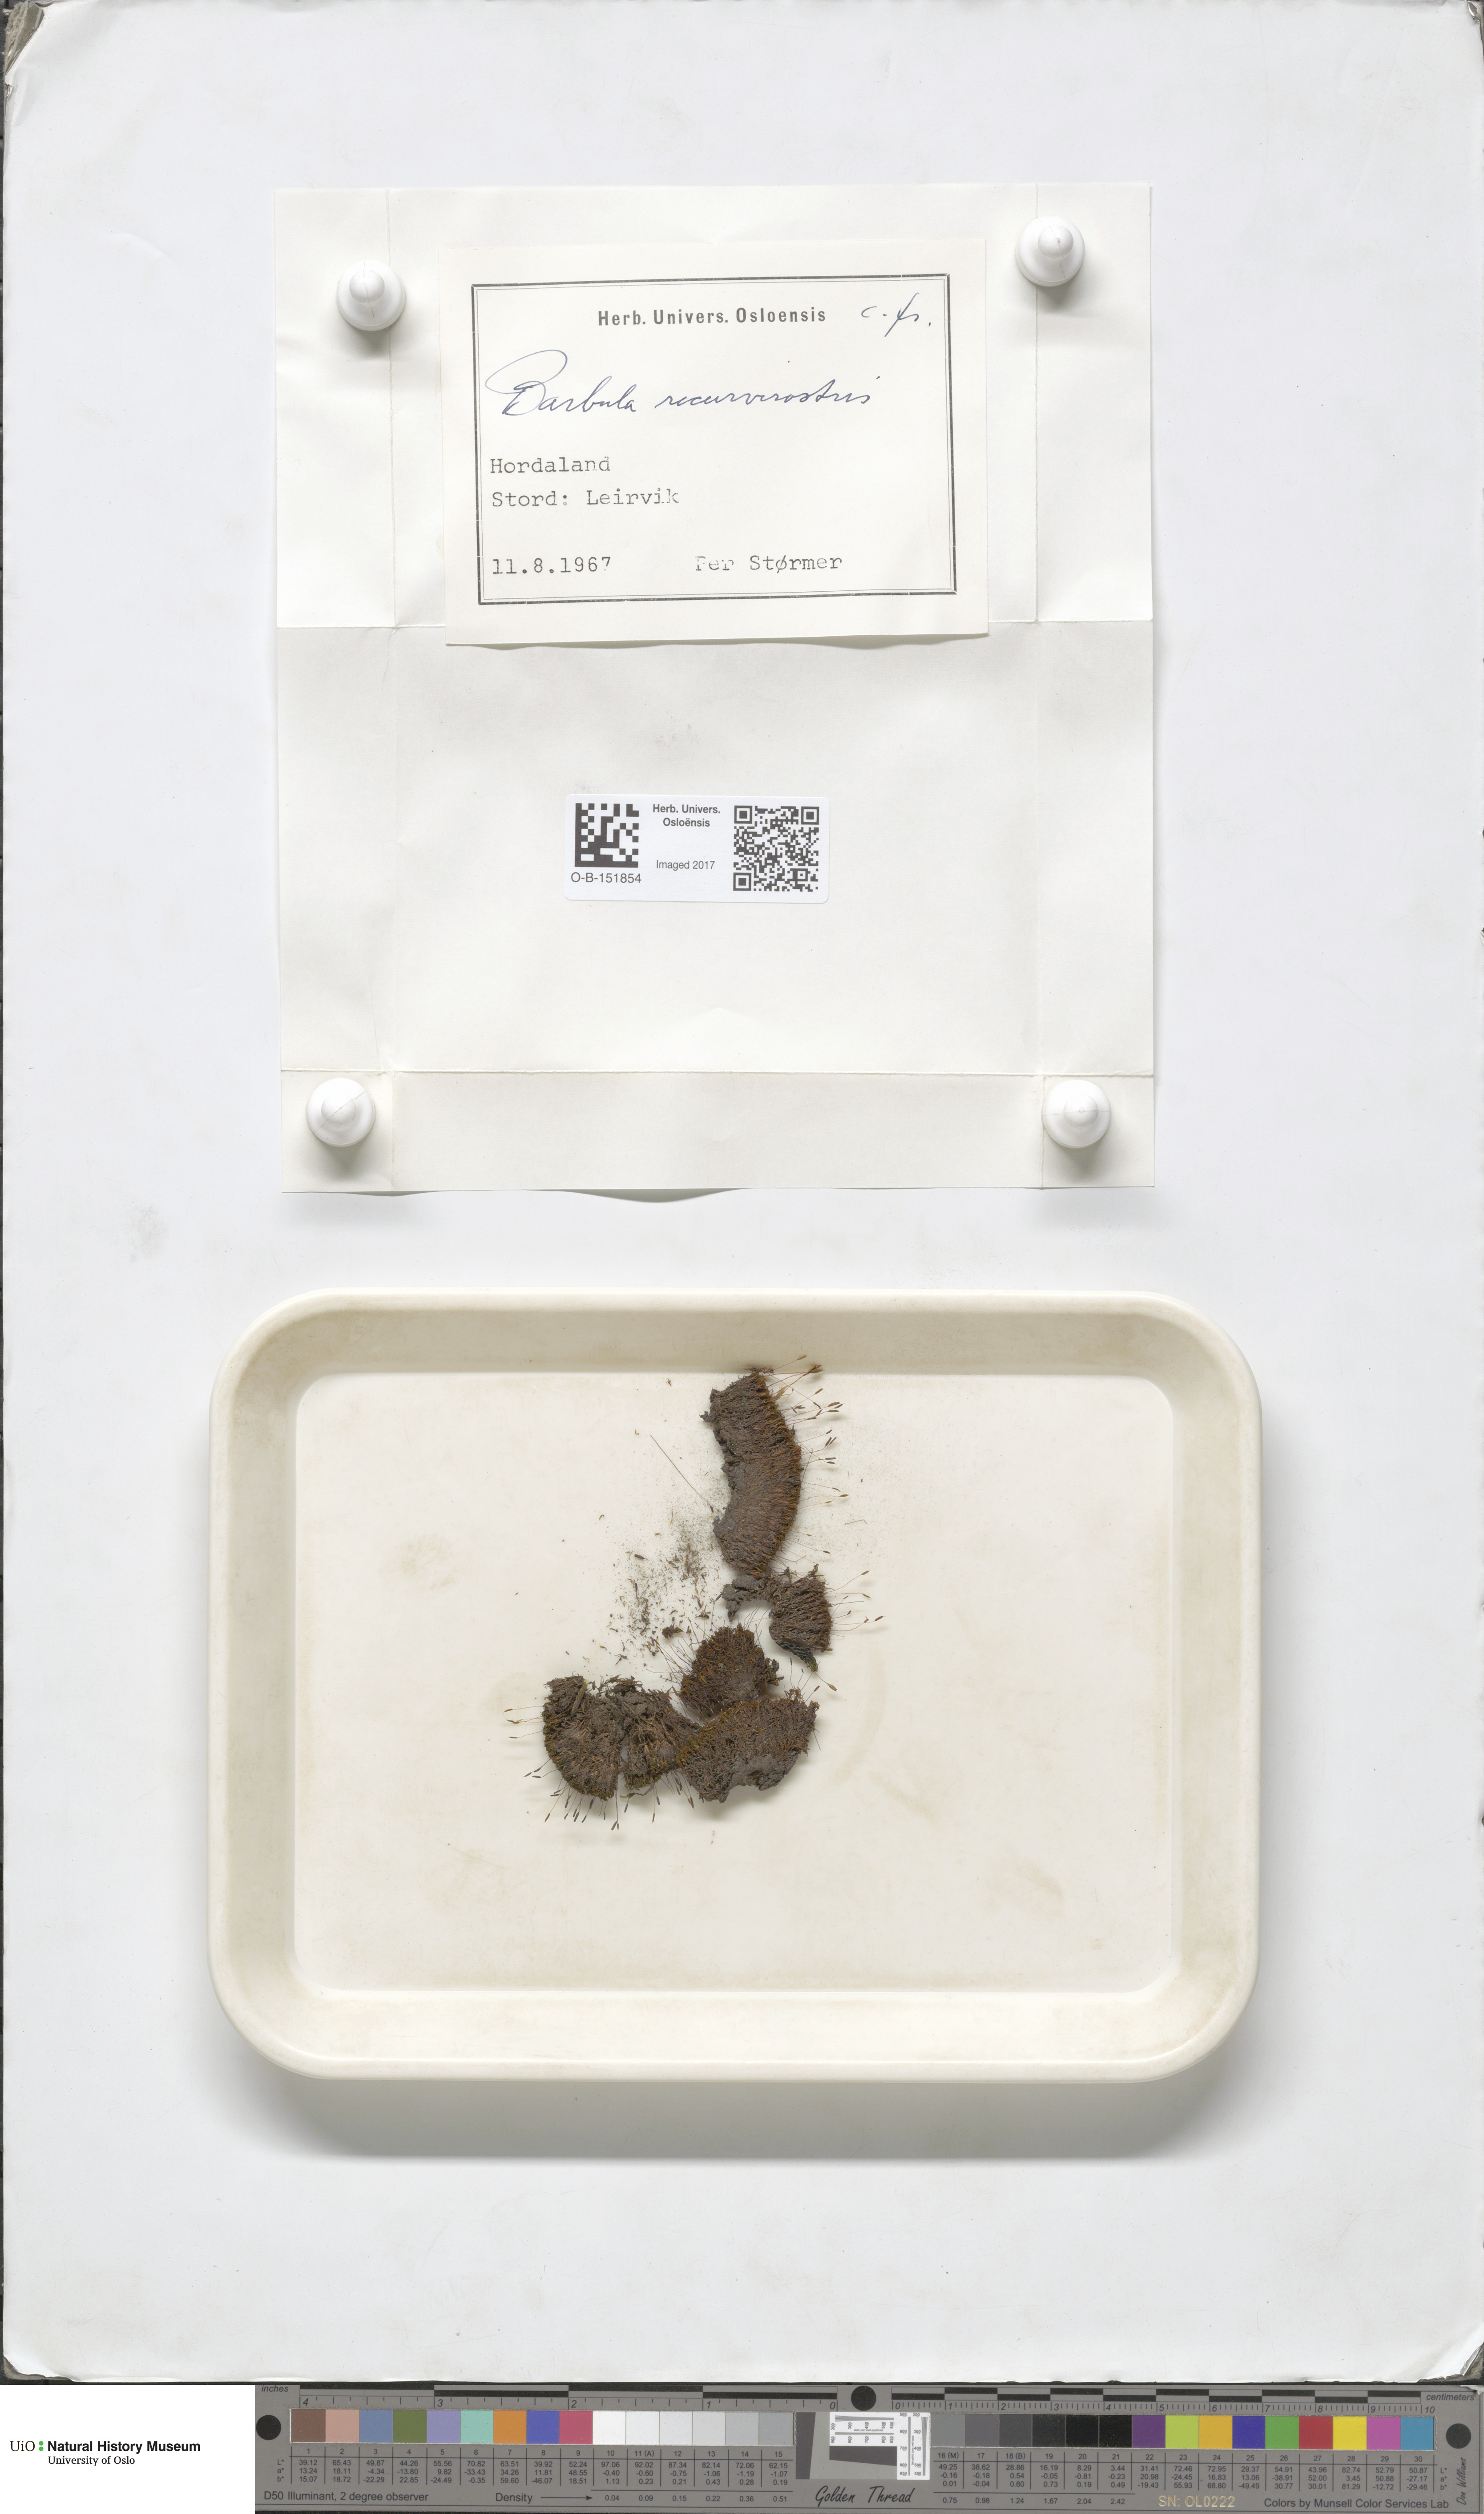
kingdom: Plantae
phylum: Bryophyta
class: Bryopsida
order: Pottiales
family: Pottiaceae
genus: Bryoerythrophyllum
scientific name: Bryoerythrophyllum recurvirostrum
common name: Red beard moss
